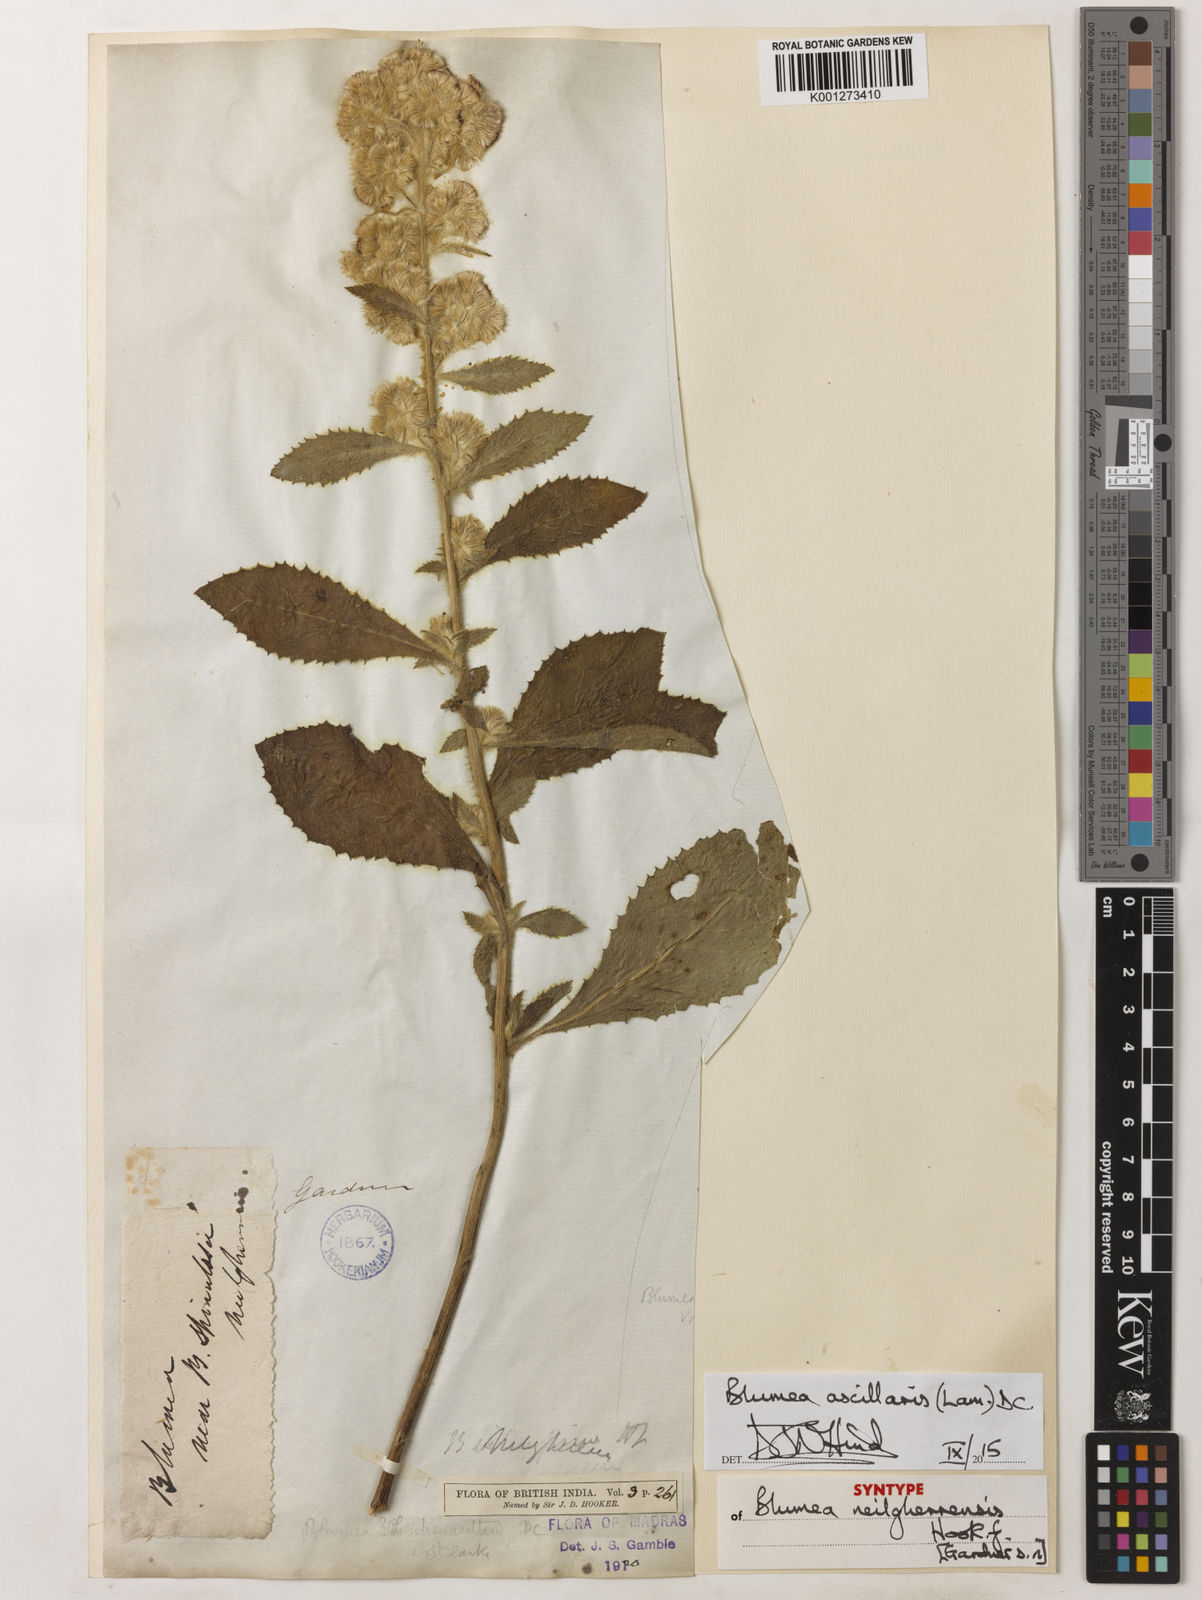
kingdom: Plantae
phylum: Tracheophyta
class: Magnoliopsida
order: Asterales
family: Asteraceae
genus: Blumea
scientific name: Blumea axillaris
